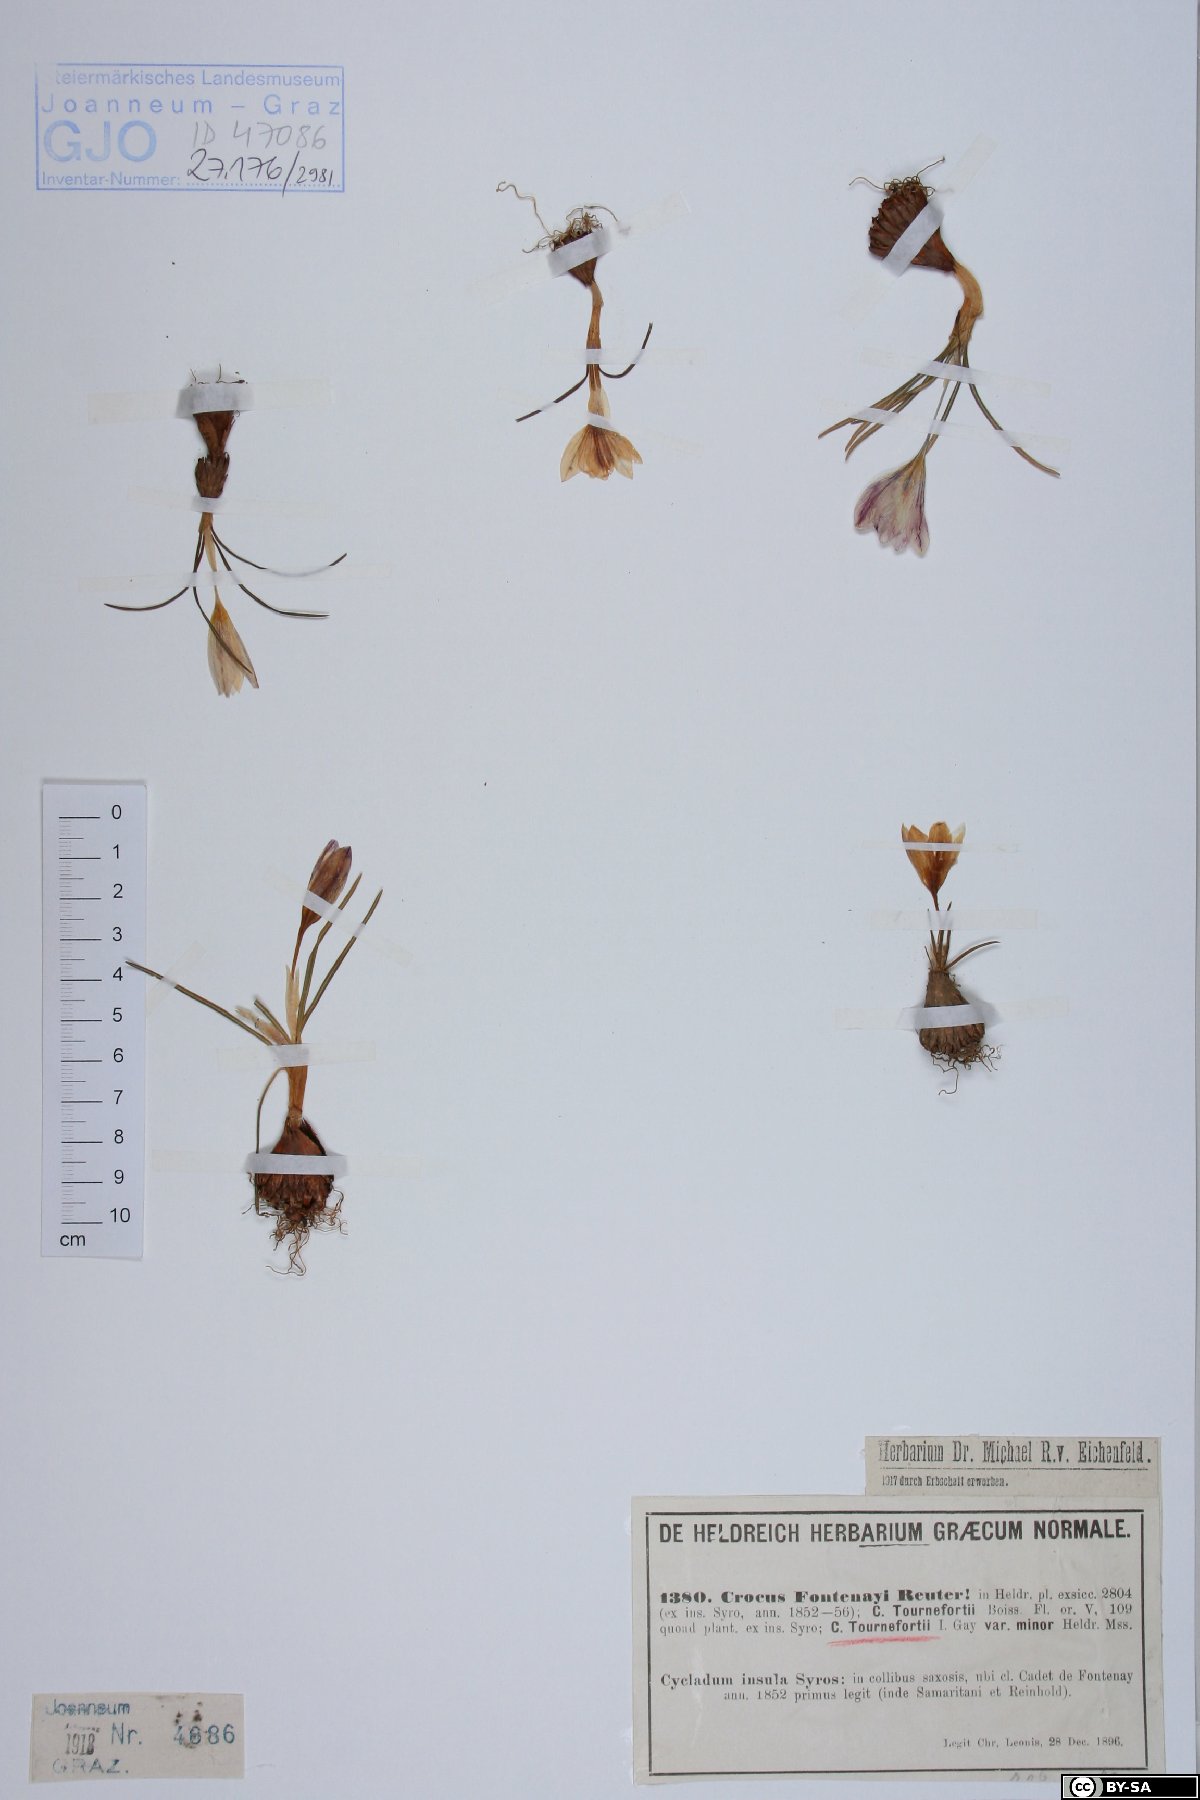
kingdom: Plantae
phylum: Tracheophyta
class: Liliopsida
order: Asparagales
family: Iridaceae
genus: Crocus
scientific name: Crocus tournefortii
